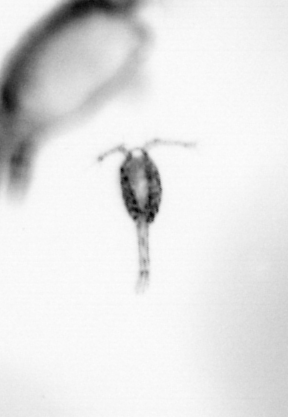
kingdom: Animalia
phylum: Arthropoda
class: Copepoda
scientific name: Copepoda
